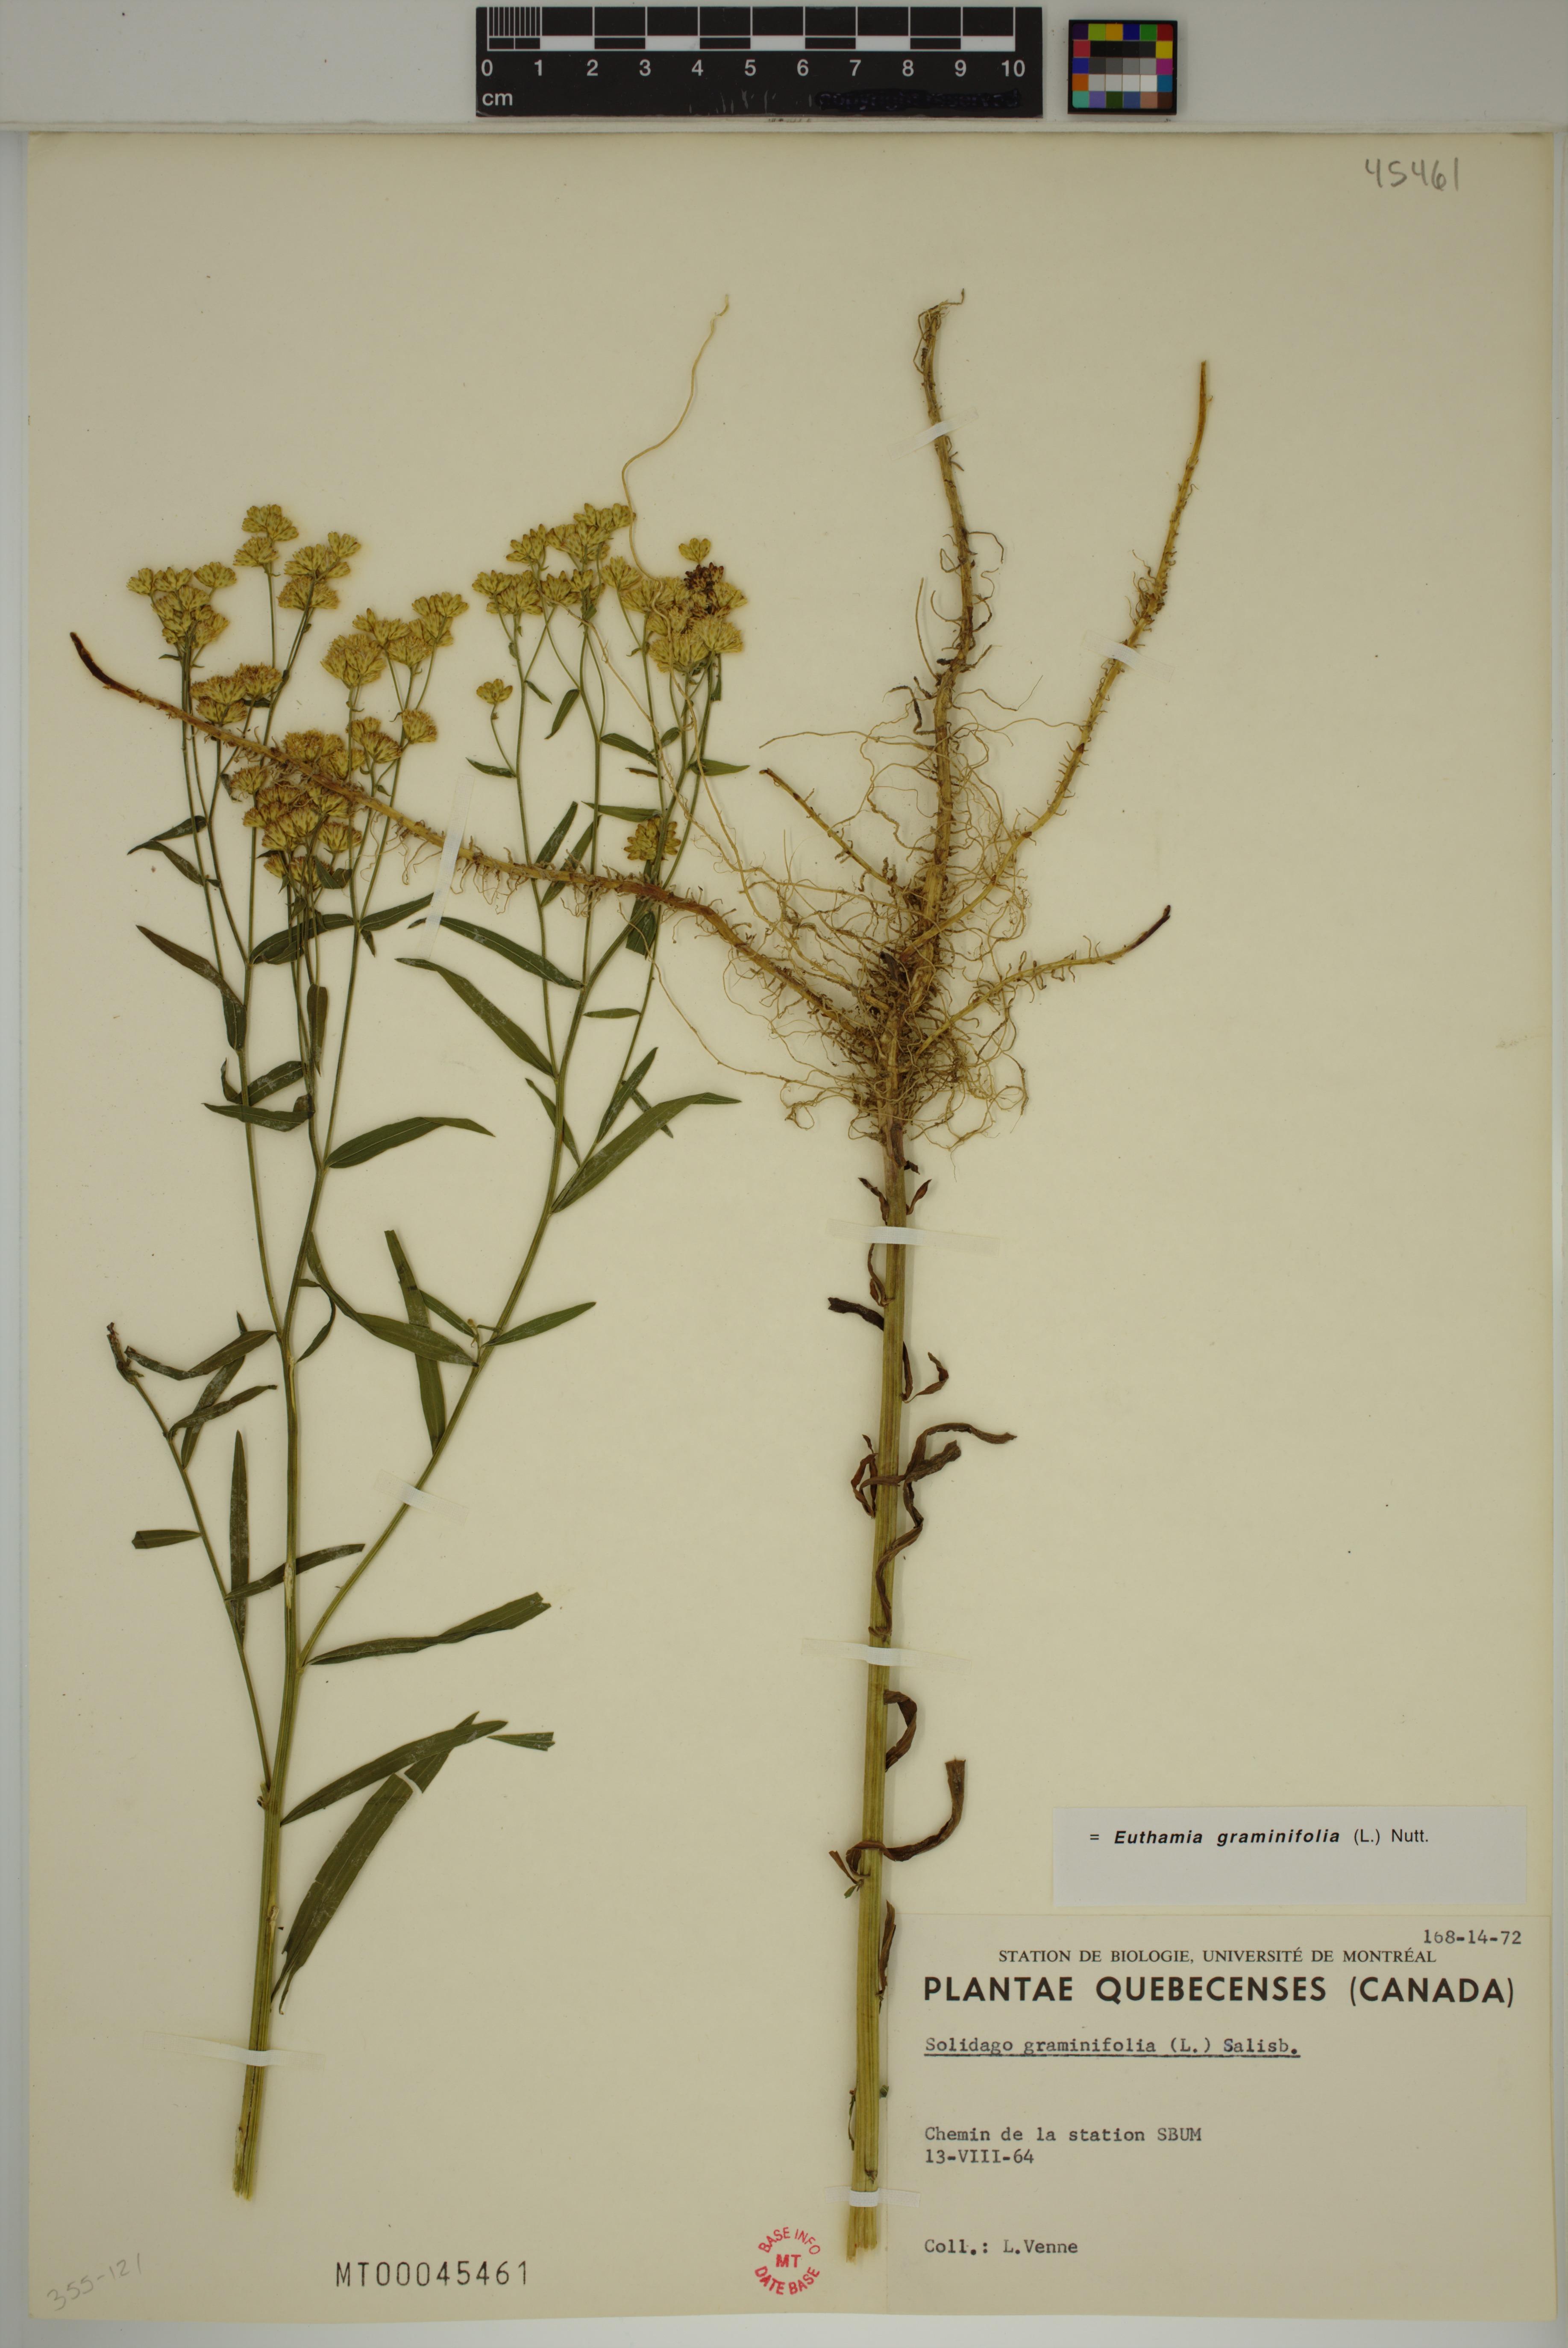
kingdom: Plantae
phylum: Tracheophyta
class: Magnoliopsida
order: Asterales
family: Asteraceae
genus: Euthamia
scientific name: Euthamia graminifolia
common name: Common goldentop
